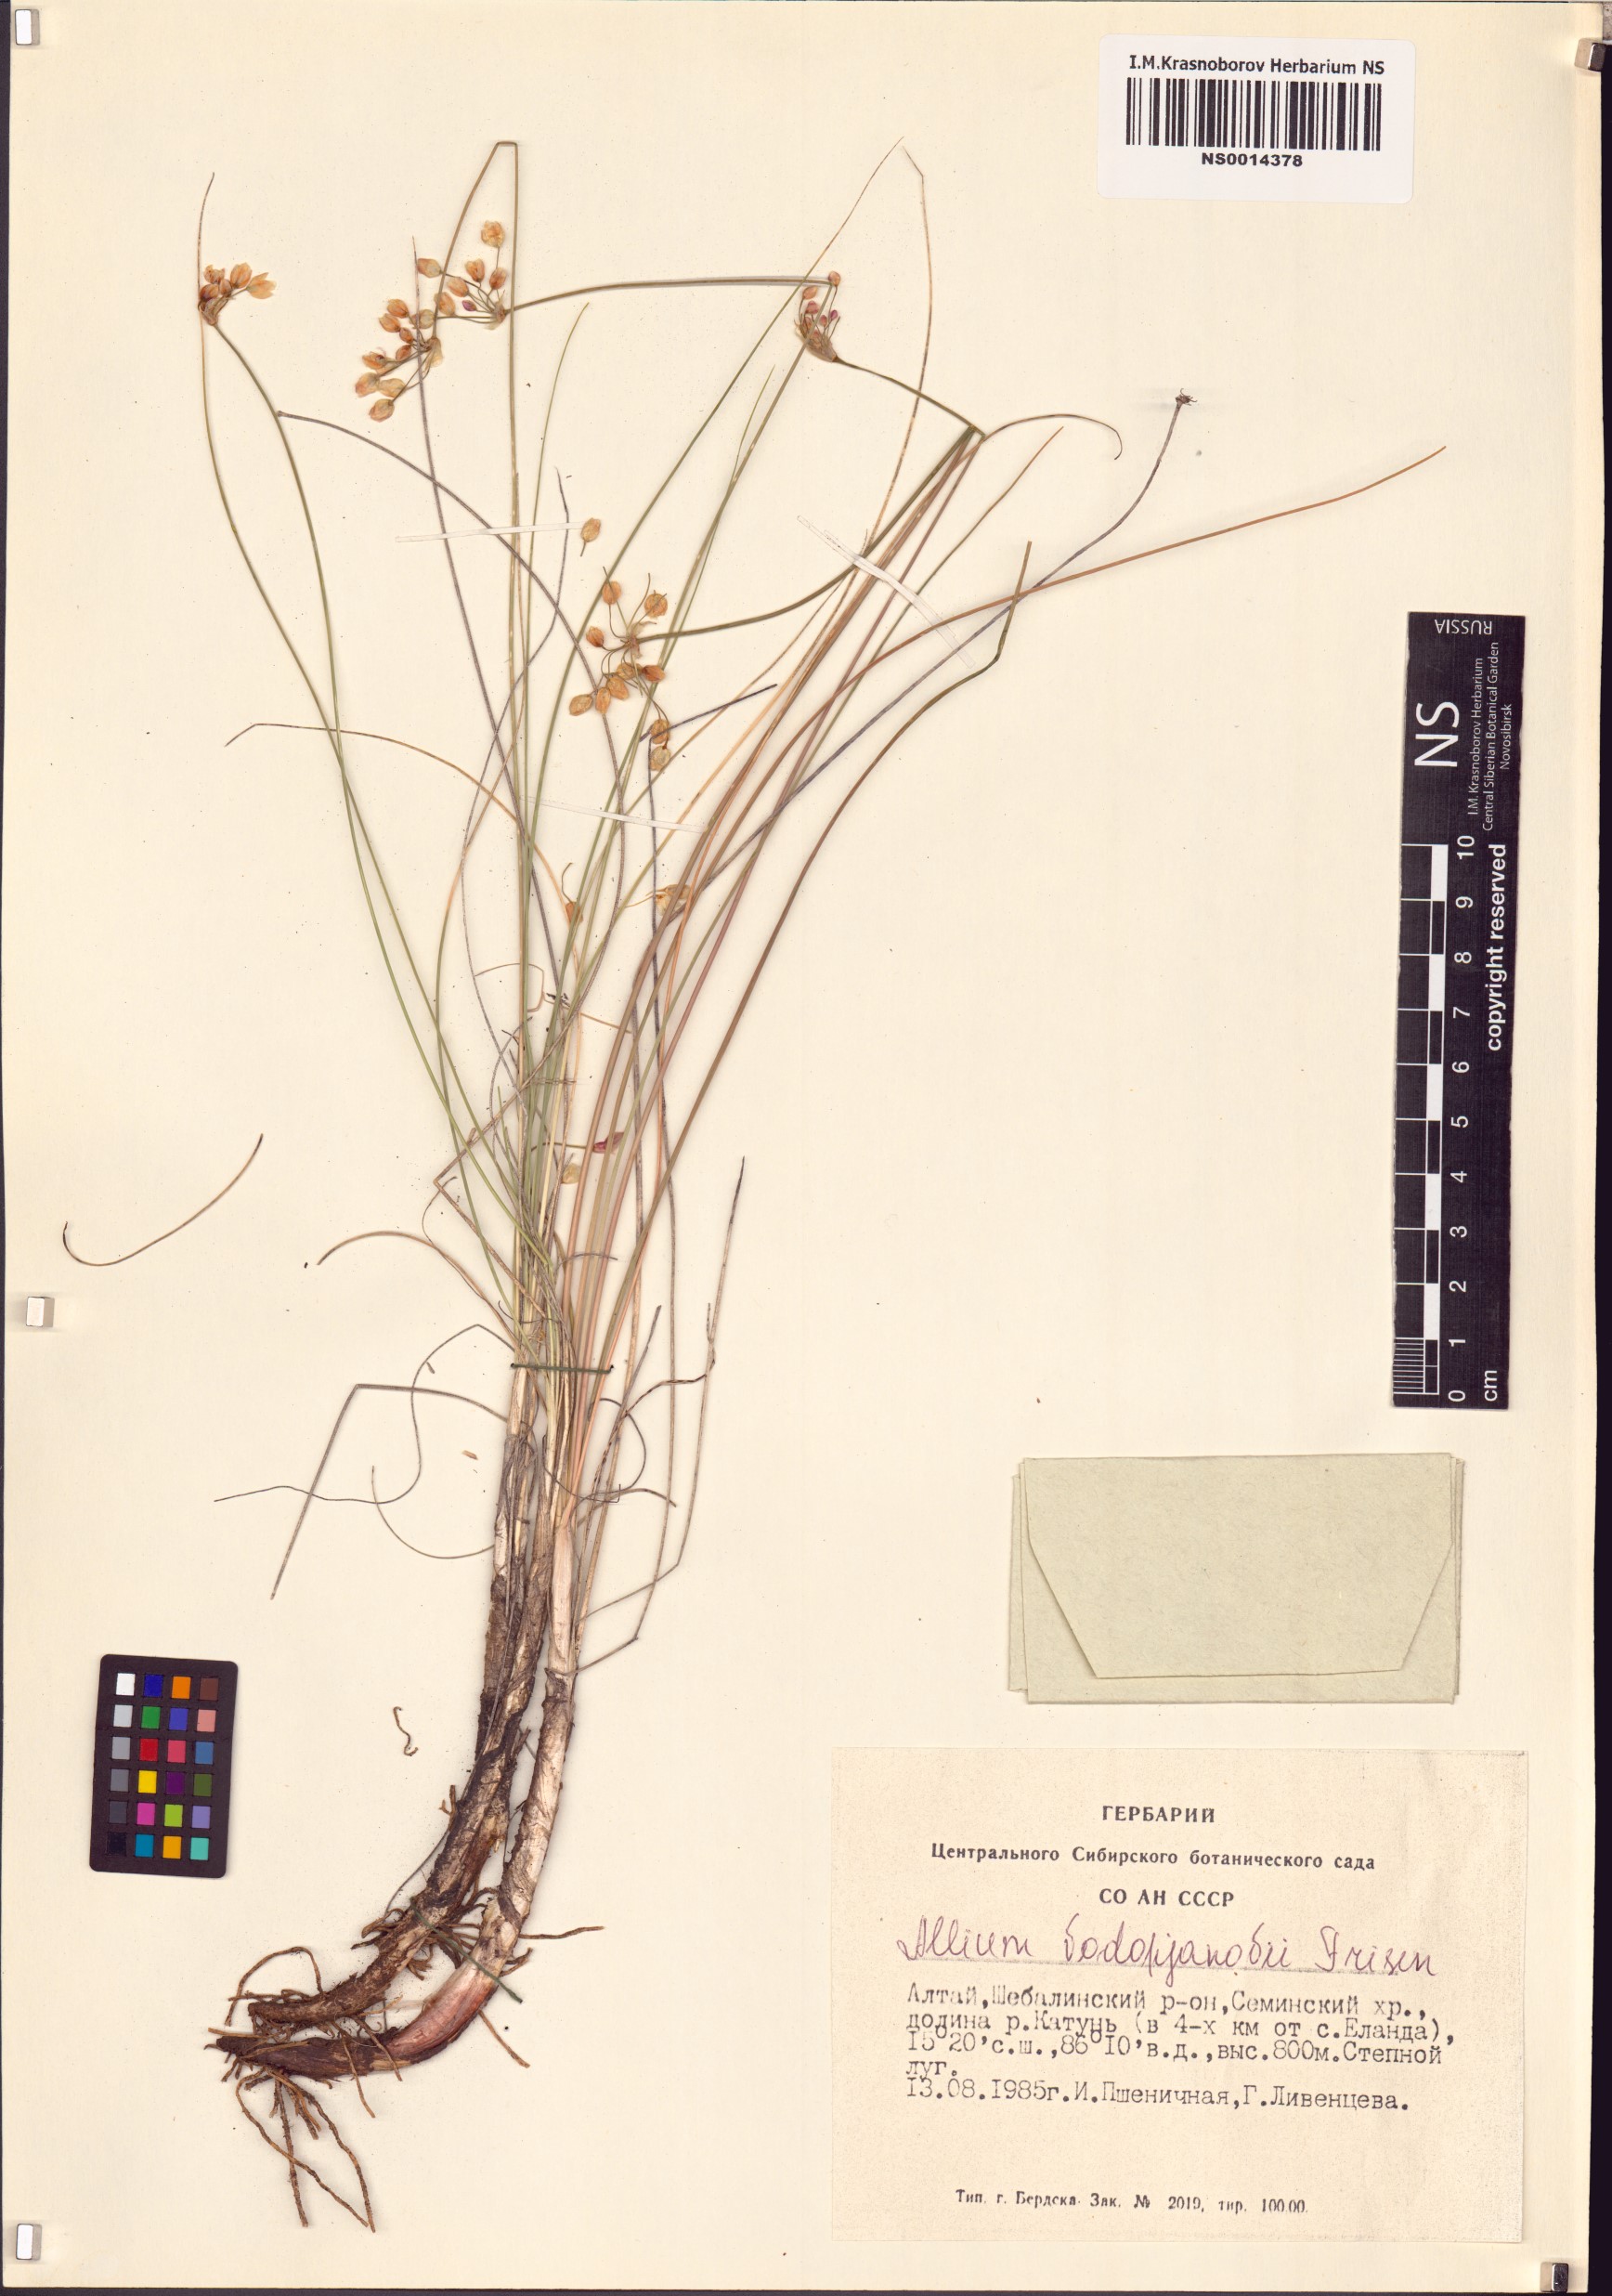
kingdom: Plantae
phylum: Tracheophyta
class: Liliopsida
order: Asparagales
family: Amaryllidaceae
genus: Allium
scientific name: Allium vodopjanovae
